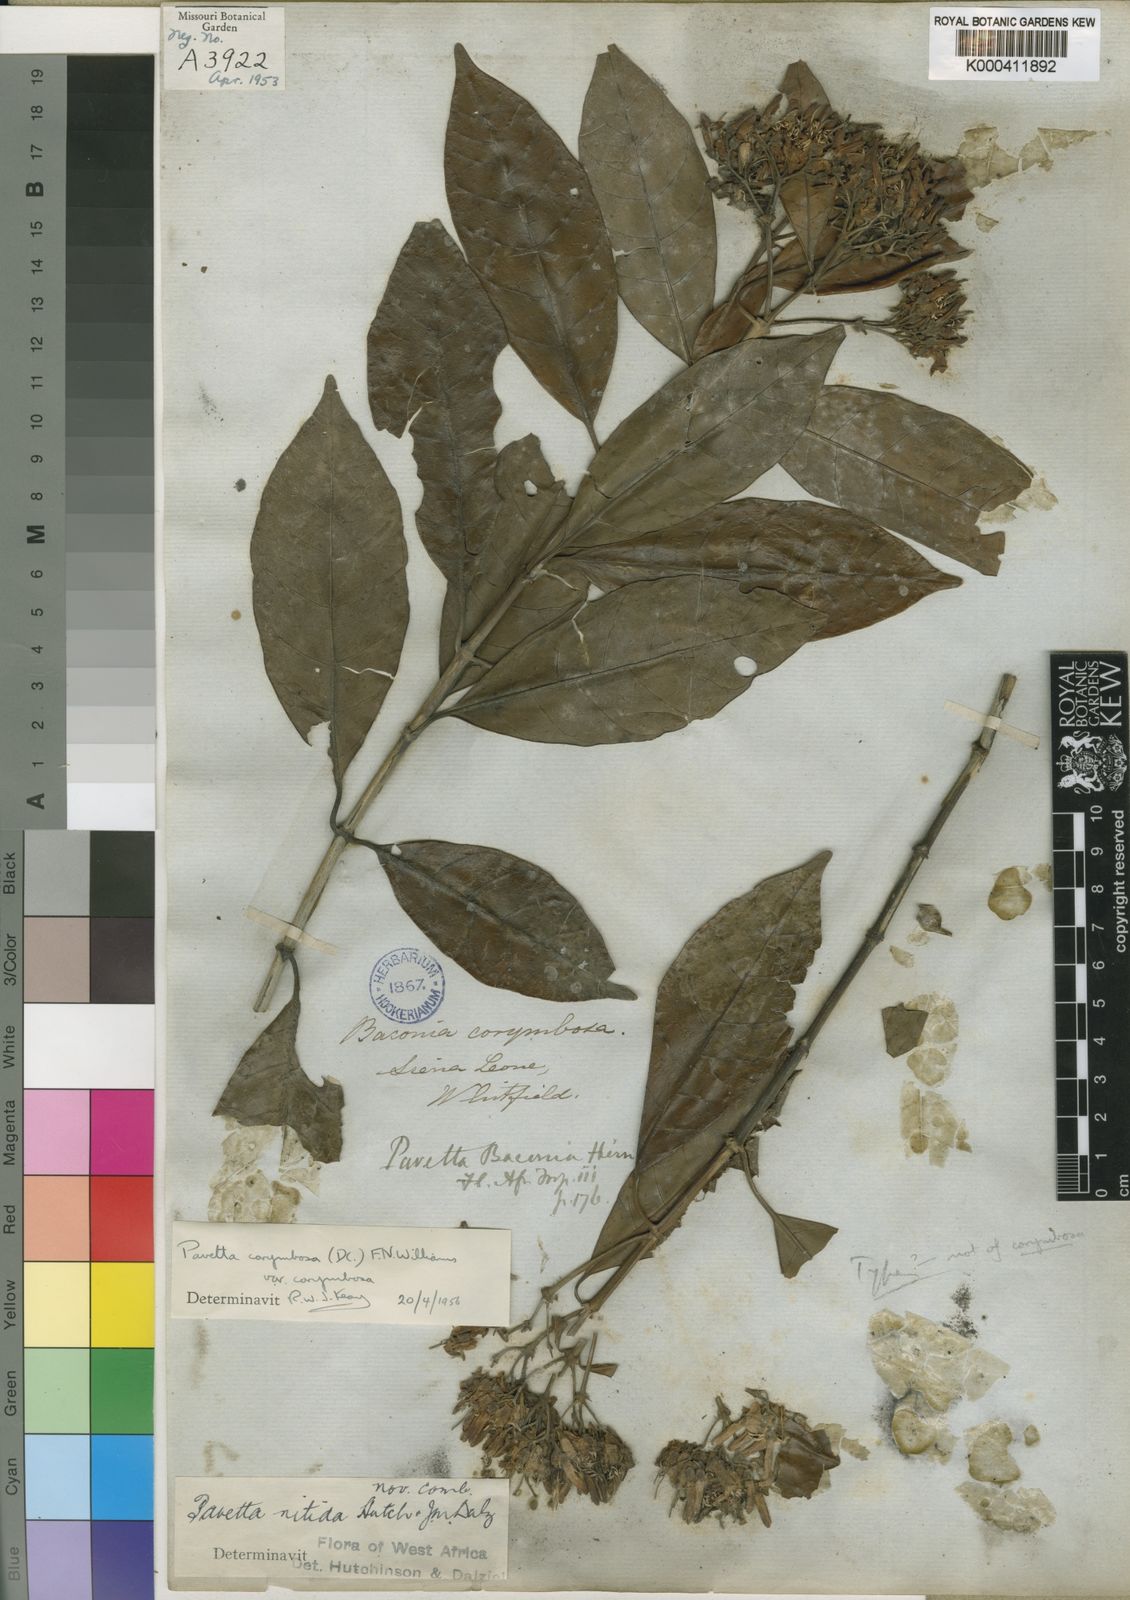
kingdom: Plantae
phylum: Tracheophyta
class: Magnoliopsida
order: Gentianales
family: Rubiaceae
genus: Pavetta
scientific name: Pavetta corymbosa
